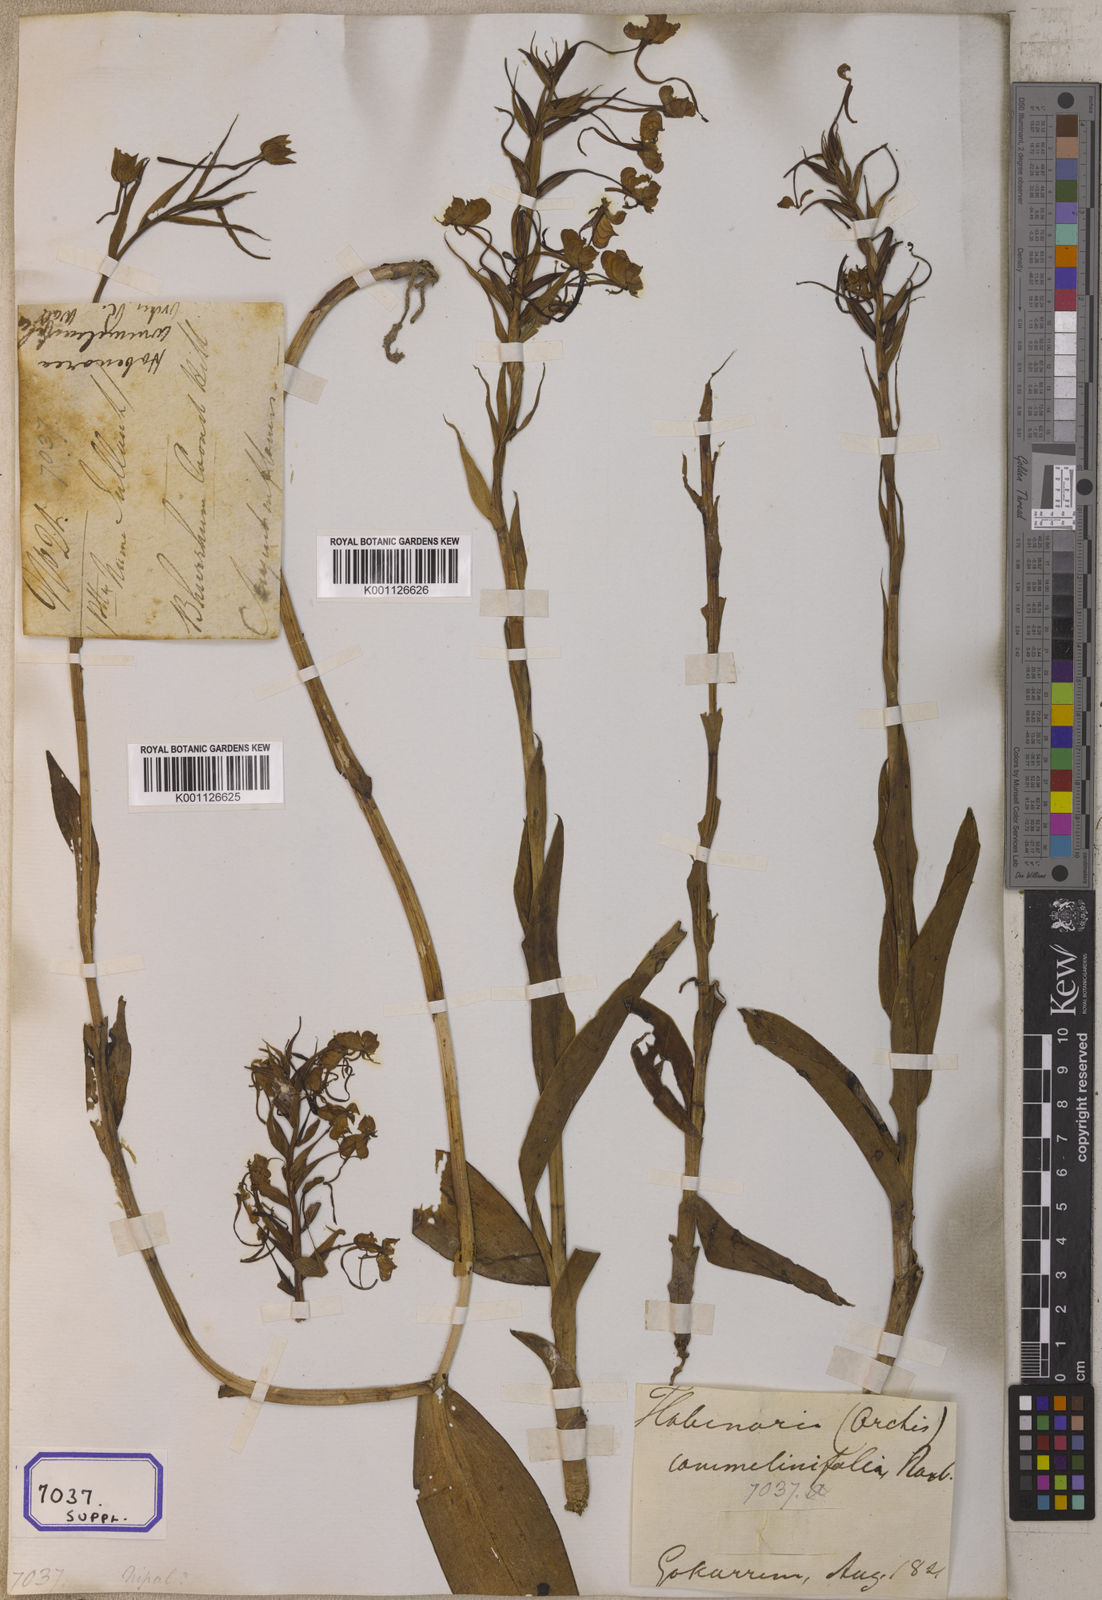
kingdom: Plantae
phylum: Tracheophyta
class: Liliopsida
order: Asparagales
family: Orchidaceae
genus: Platanthera
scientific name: Platanthera
